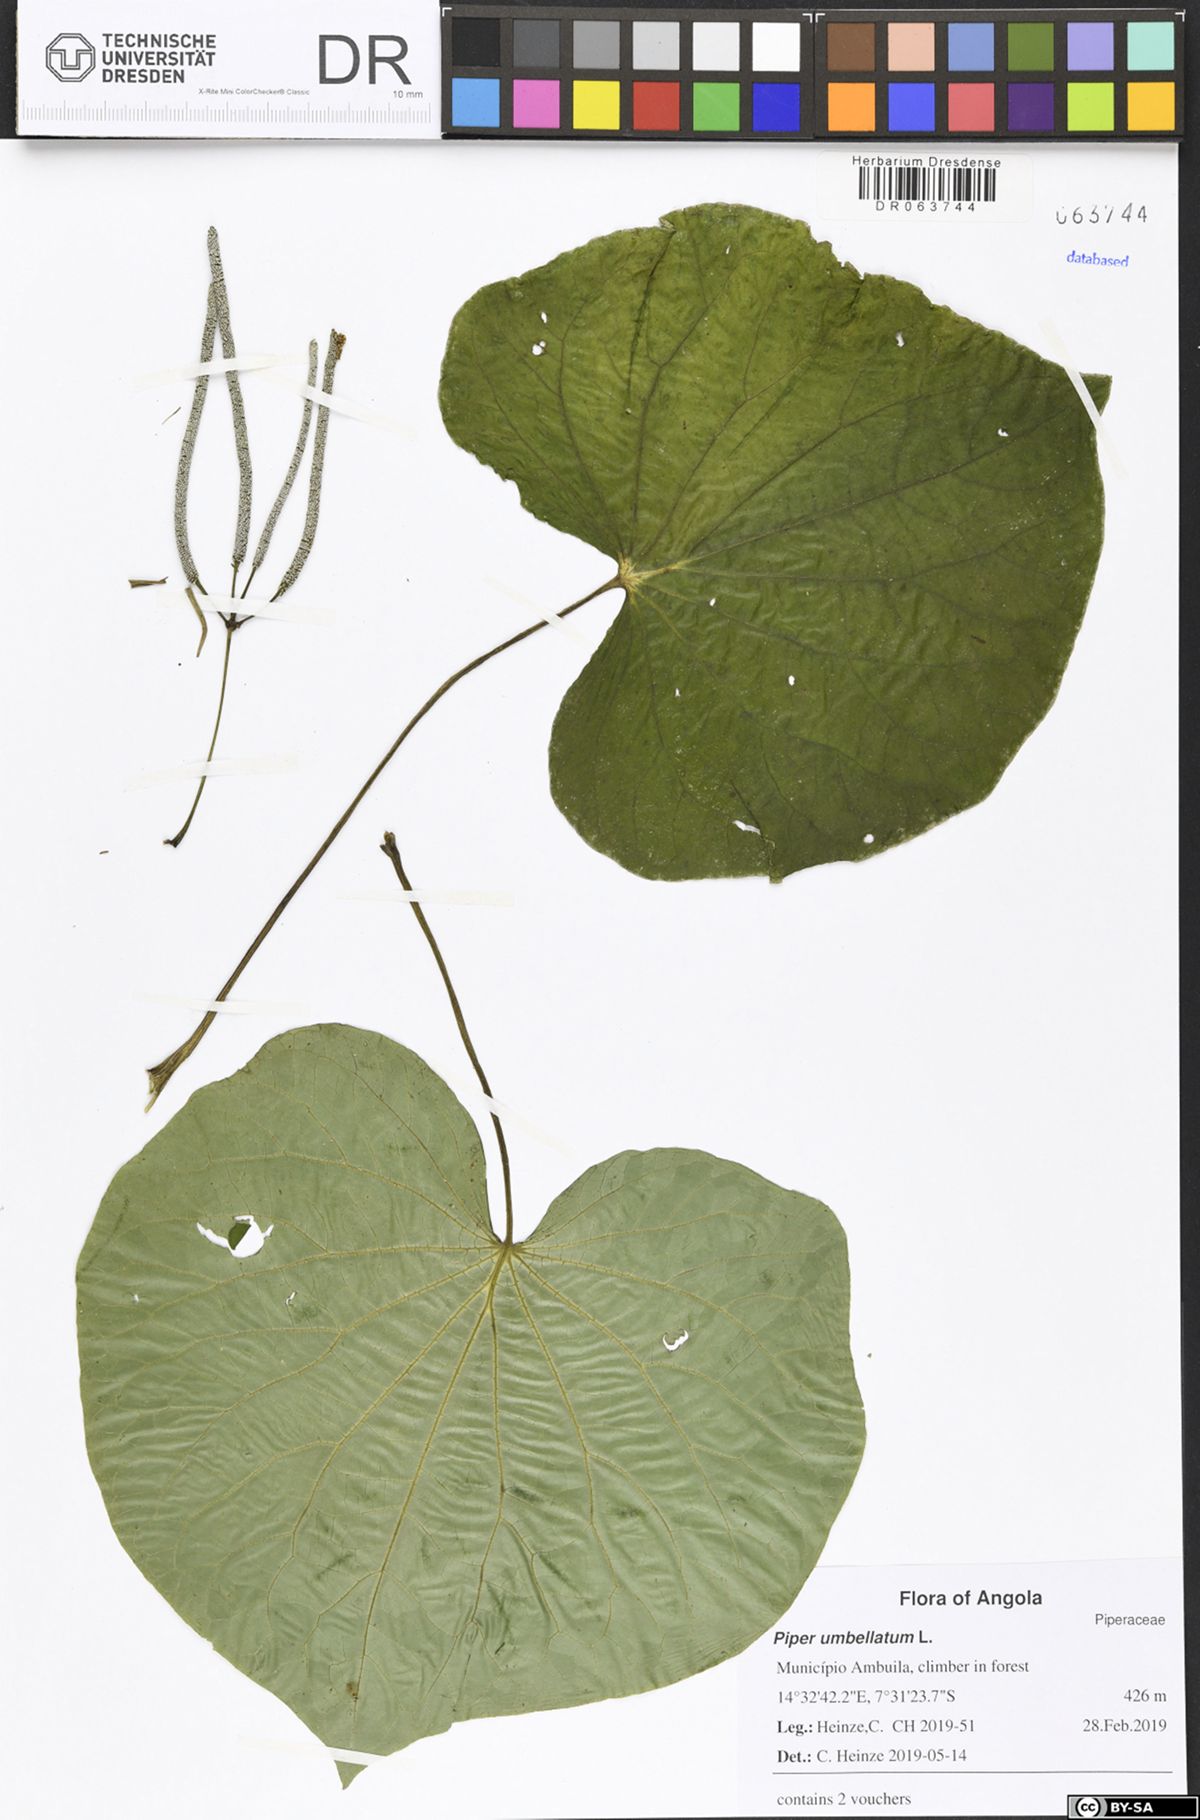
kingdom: Plantae
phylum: Tracheophyta
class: Magnoliopsida
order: Piperales
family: Piperaceae
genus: Piper
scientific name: Piper umbellatum
